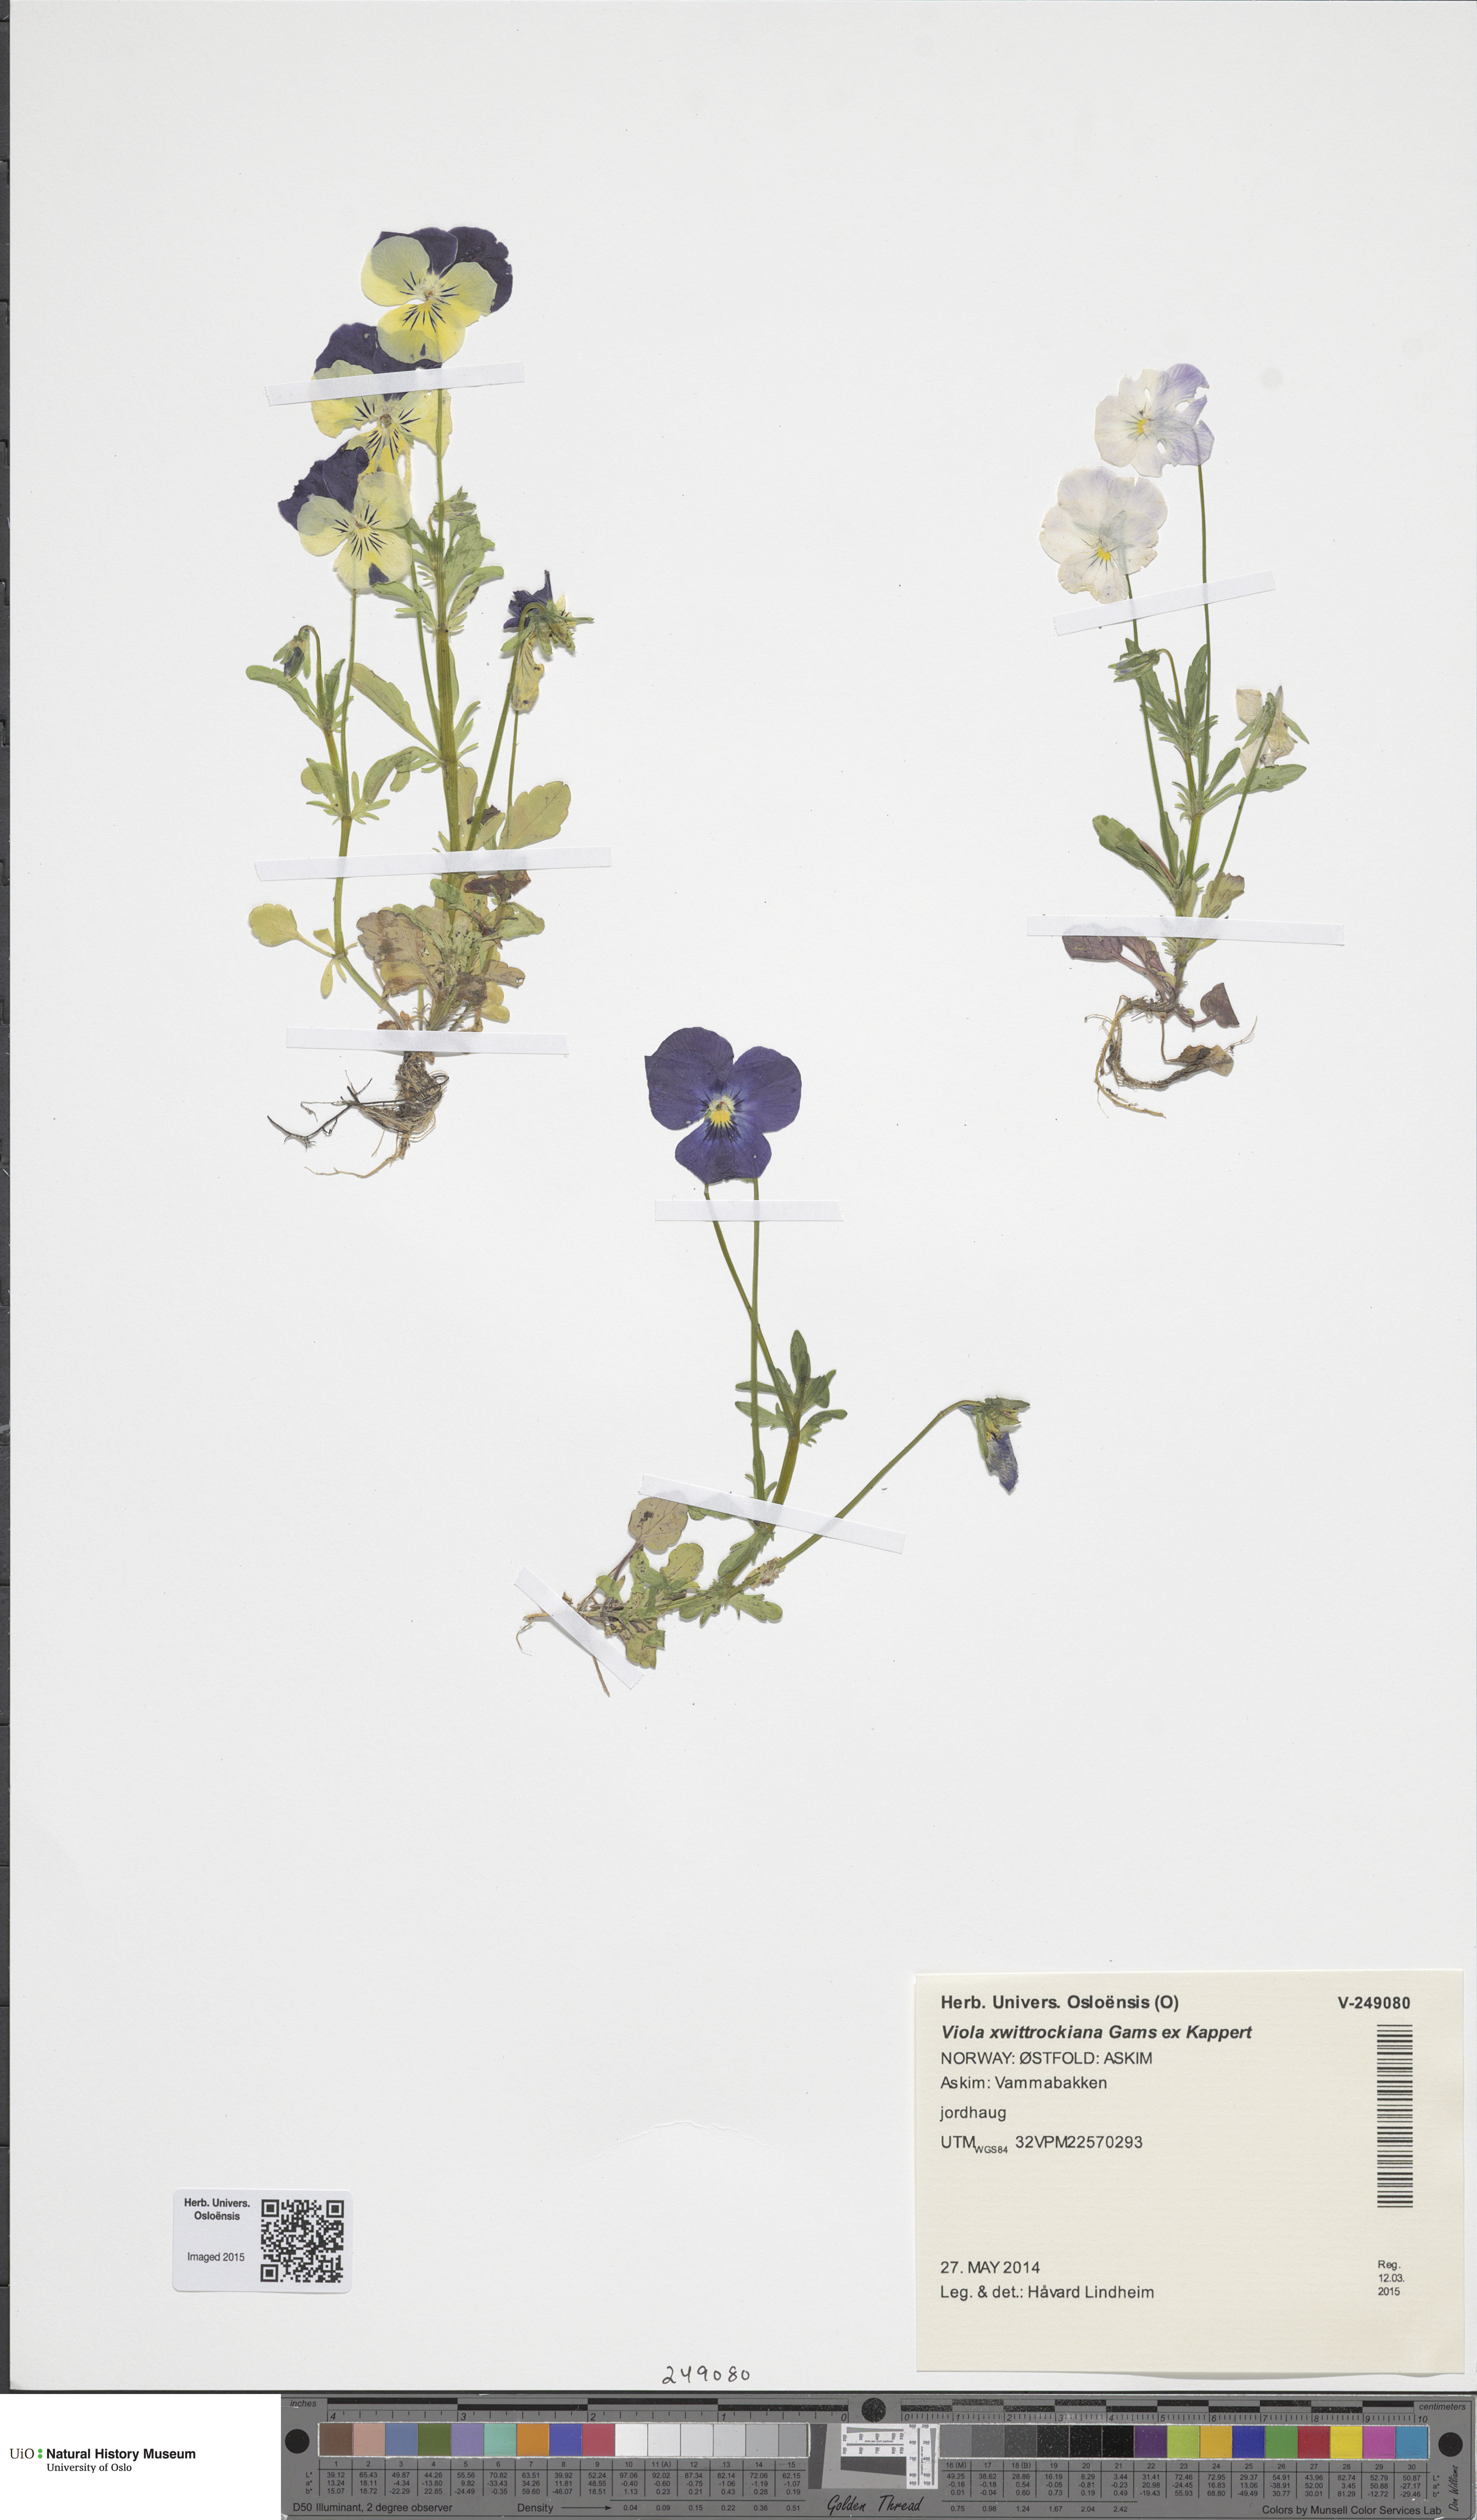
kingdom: Plantae
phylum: Tracheophyta
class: Magnoliopsida
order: Malpighiales
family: Violaceae
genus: Viola
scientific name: Viola wittrockiana
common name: Garden pansy
